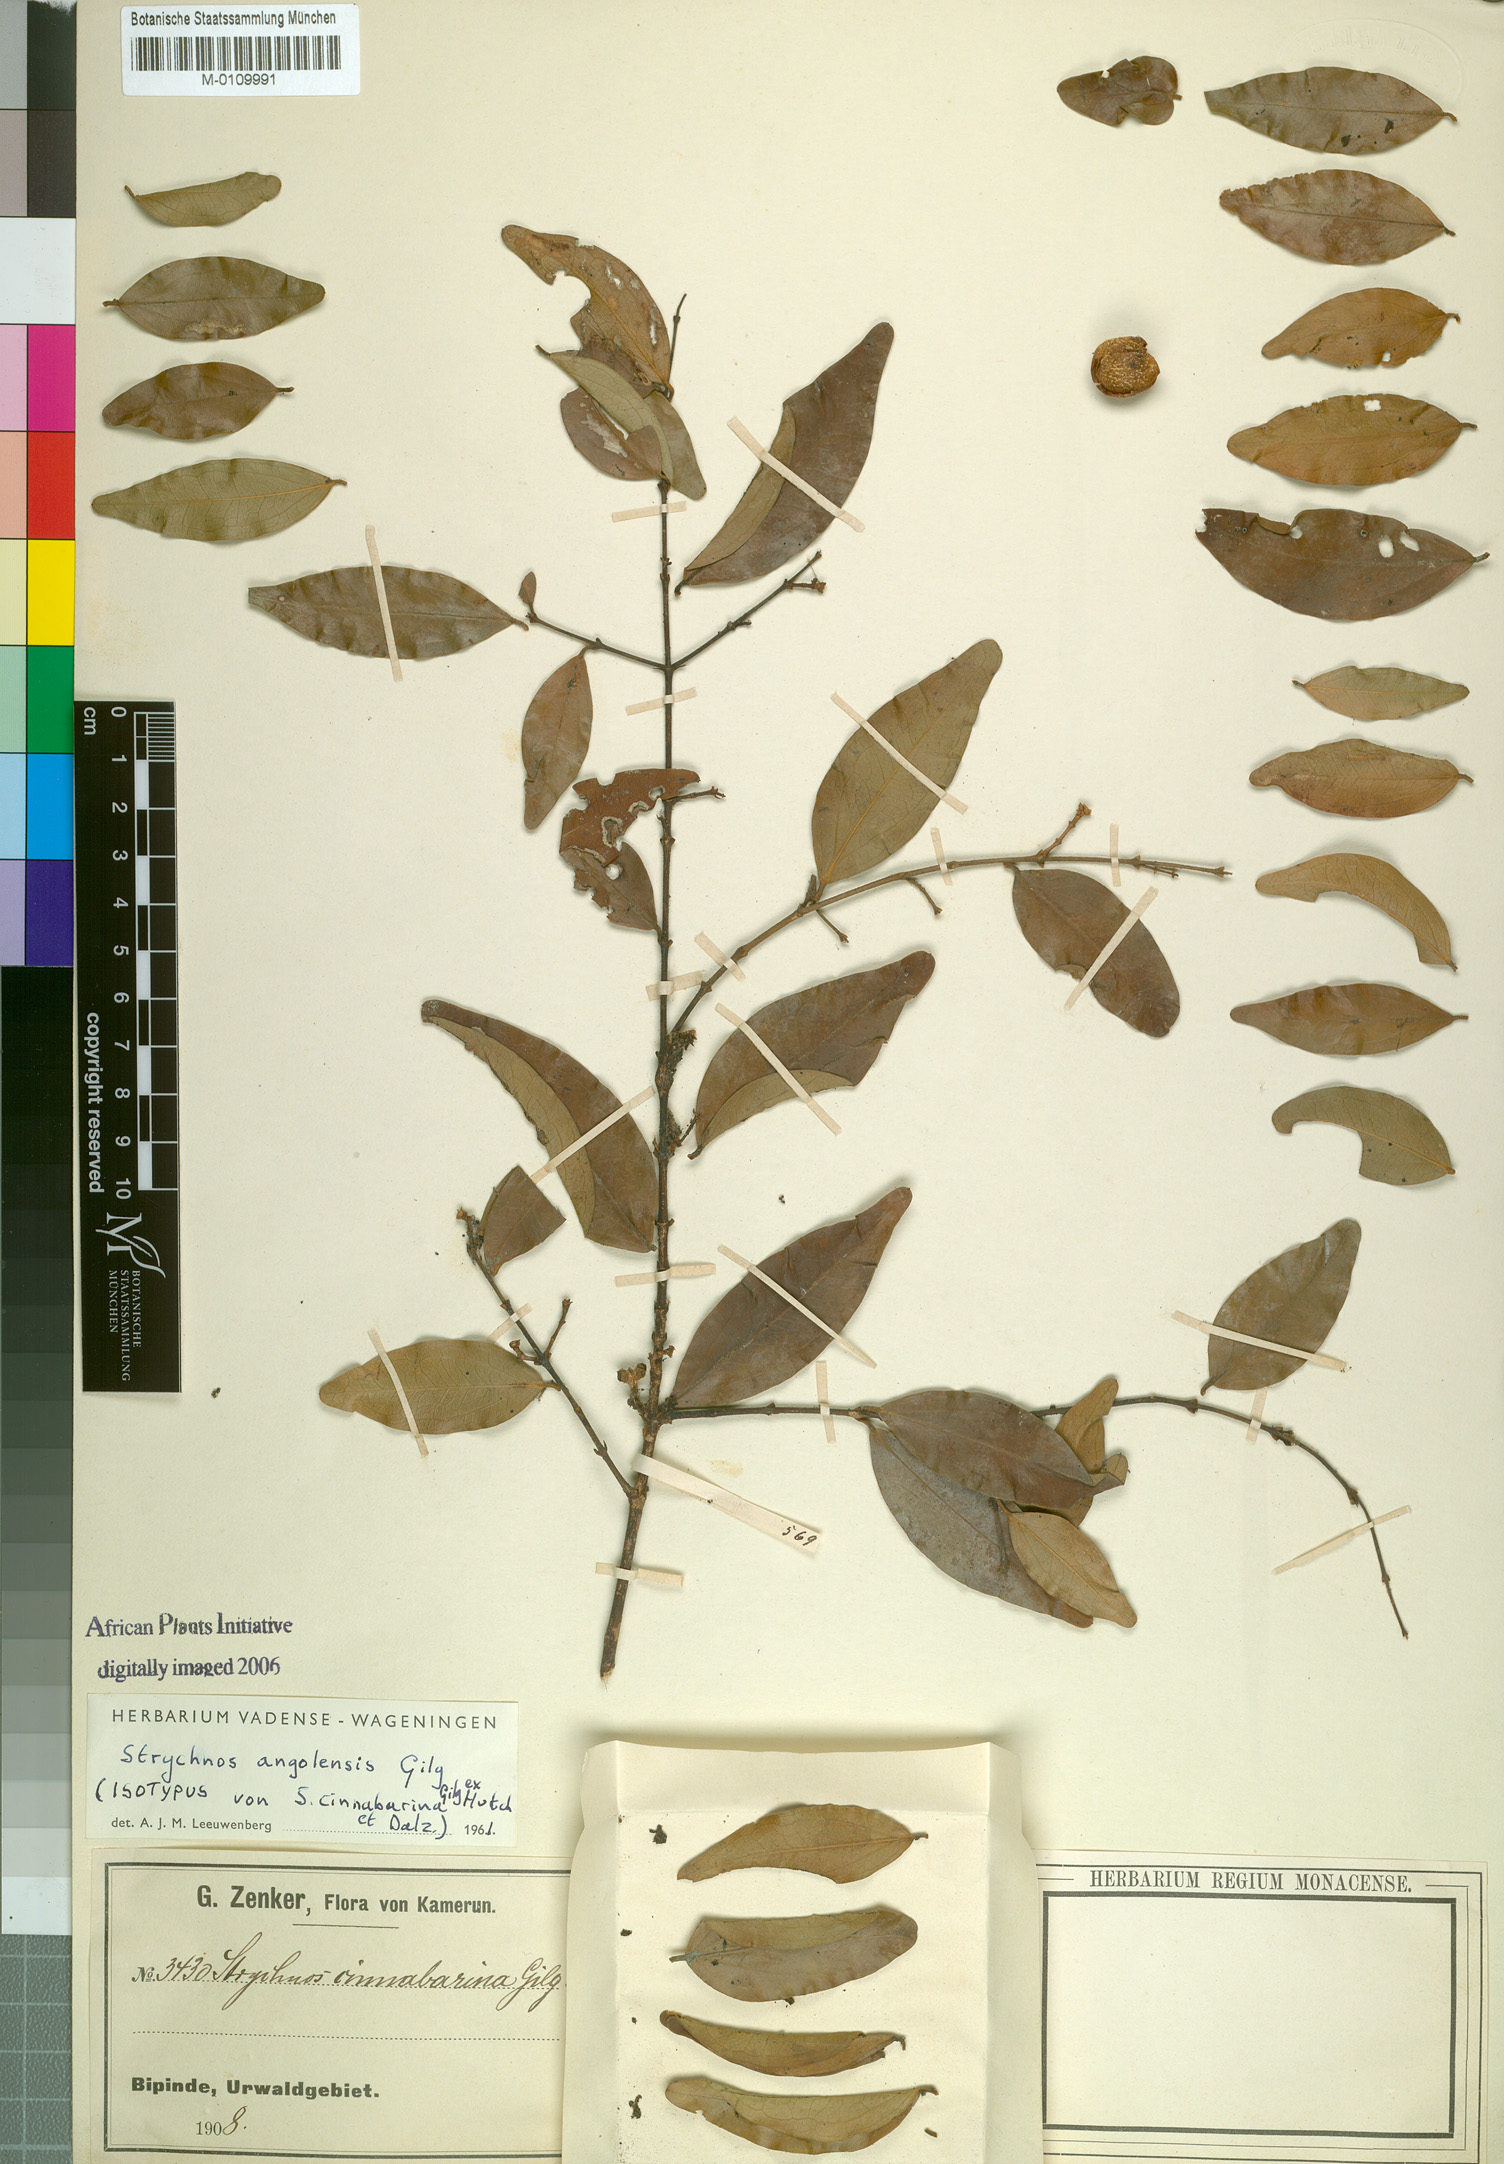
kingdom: Plantae
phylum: Tracheophyta
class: Magnoliopsida
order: Gentianales
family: Loganiaceae
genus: Strychnos
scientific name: Strychnos angolensis
